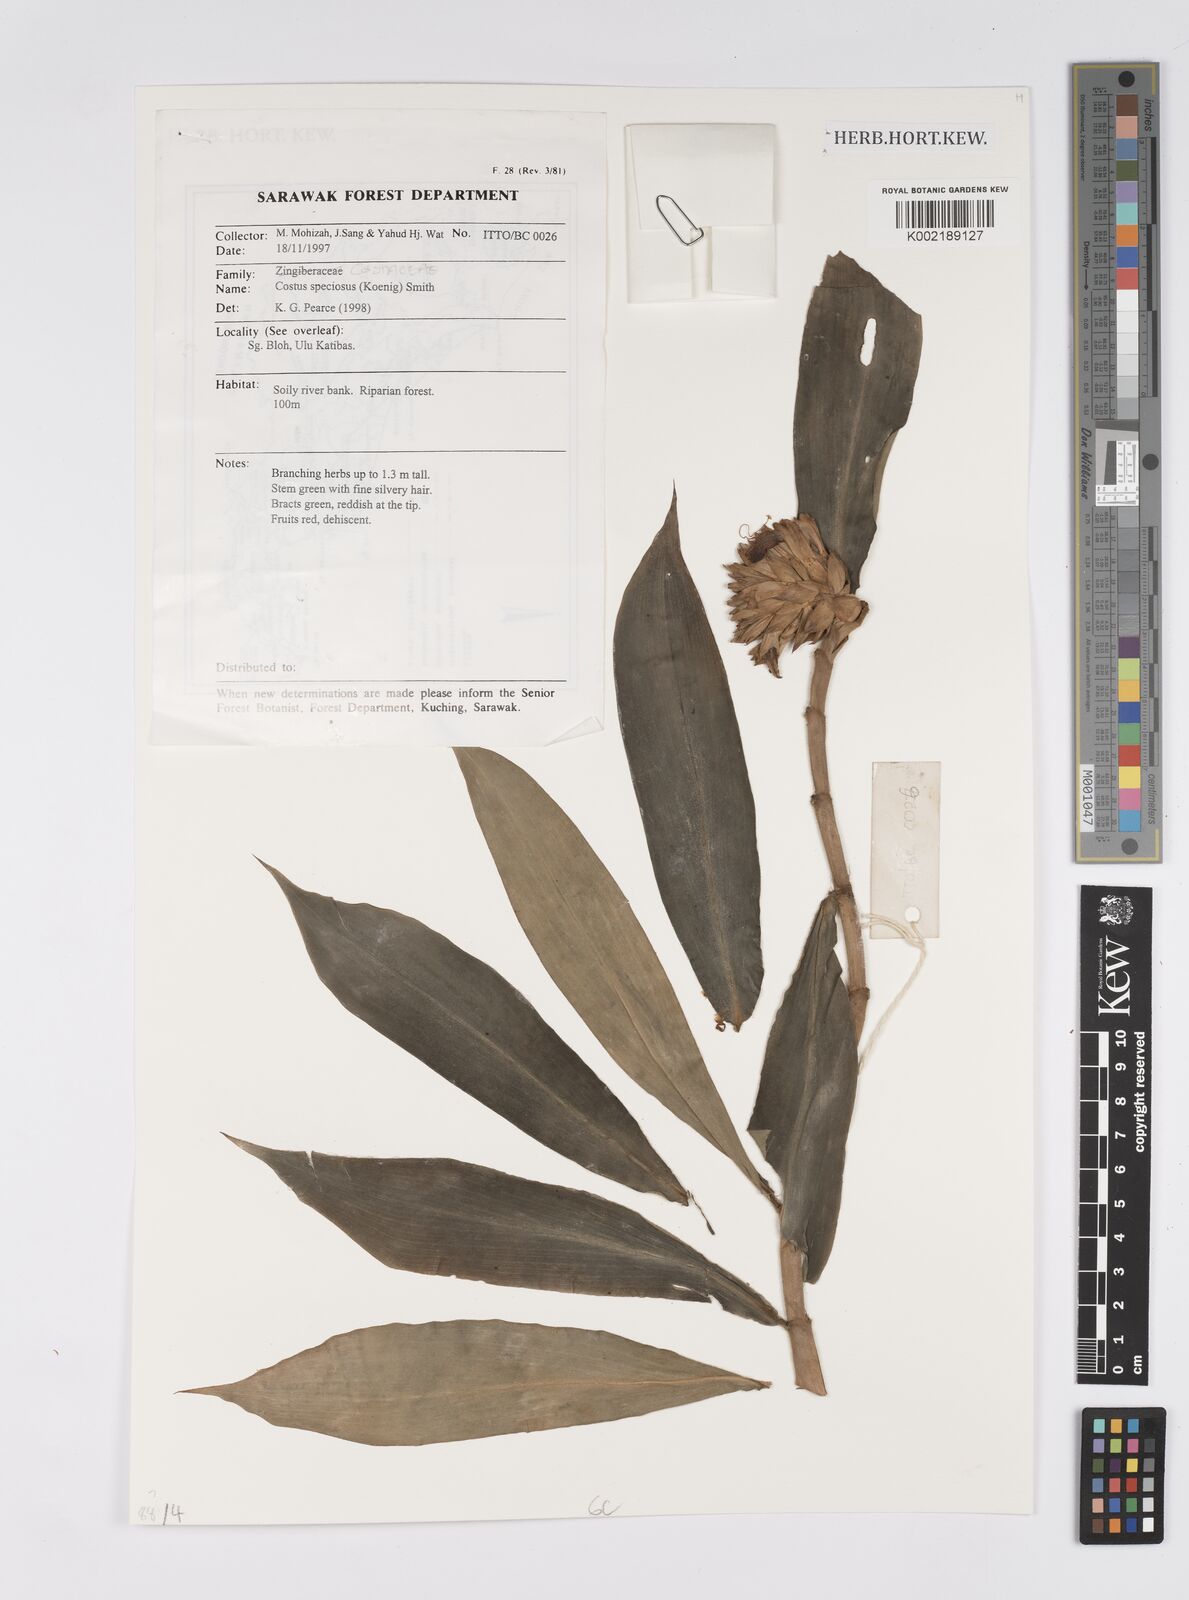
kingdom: Plantae
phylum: Tracheophyta
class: Liliopsida
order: Zingiberales
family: Costaceae
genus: Hellenia
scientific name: Hellenia speciosa
